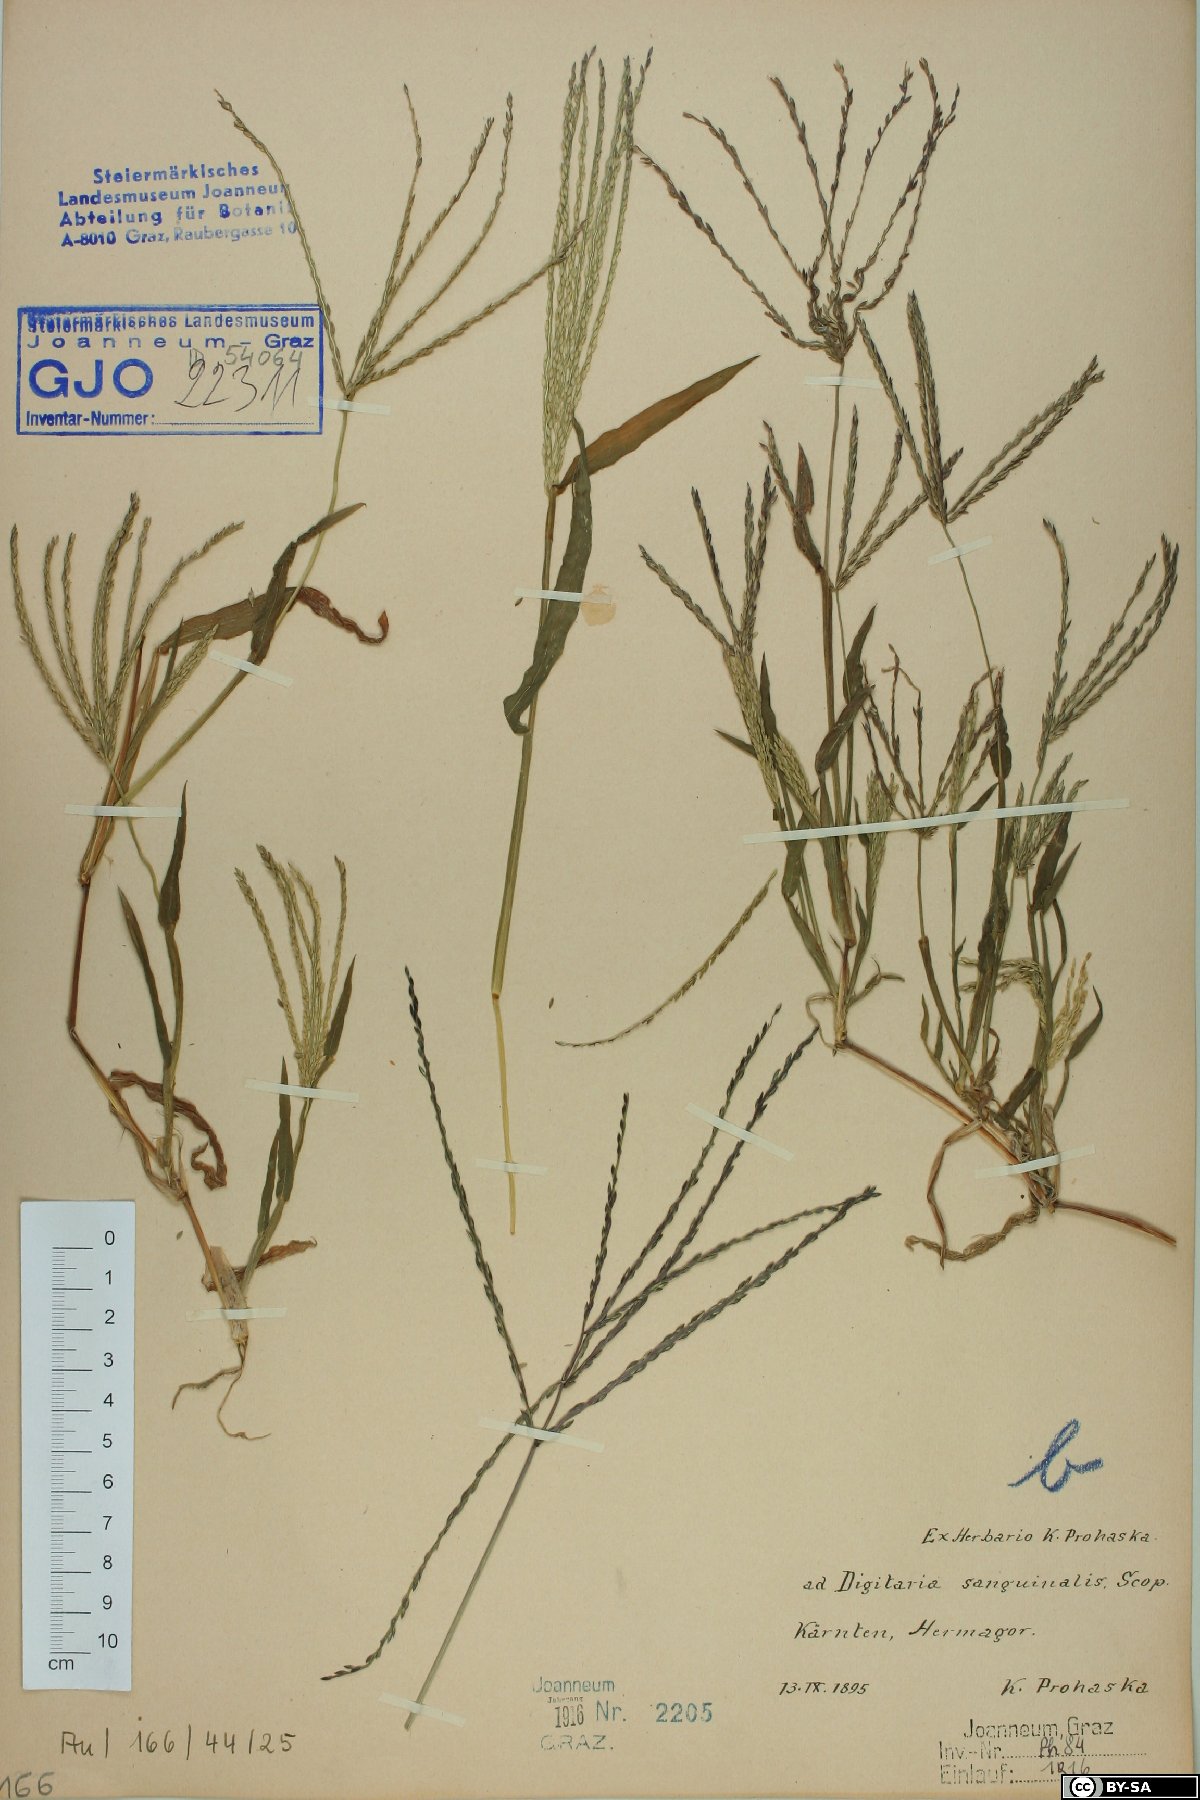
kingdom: Plantae
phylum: Tracheophyta
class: Liliopsida
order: Poales
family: Poaceae
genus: Digitaria
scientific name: Digitaria sanguinalis
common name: Hairy crabgrass
